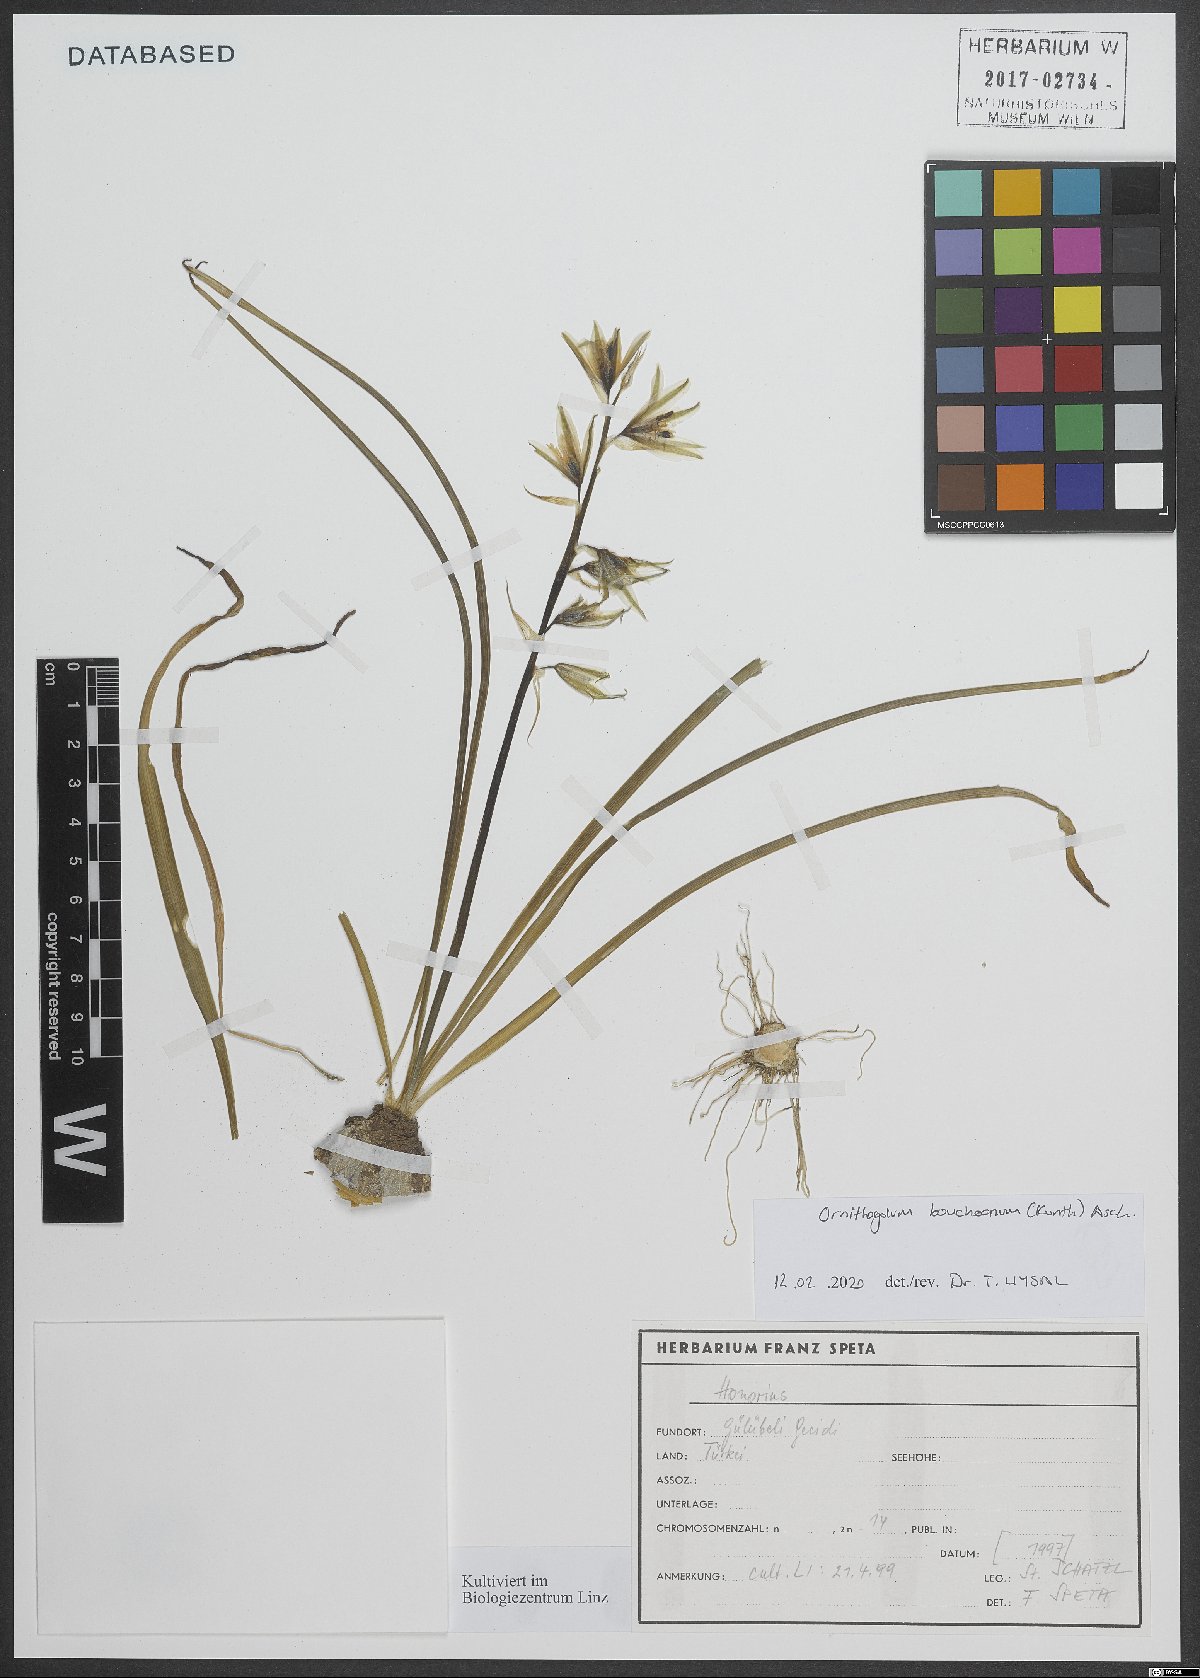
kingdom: Plantae
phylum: Tracheophyta
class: Liliopsida
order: Asparagales
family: Asparagaceae
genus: Ornithogalum
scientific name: Ornithogalum boucheanum
